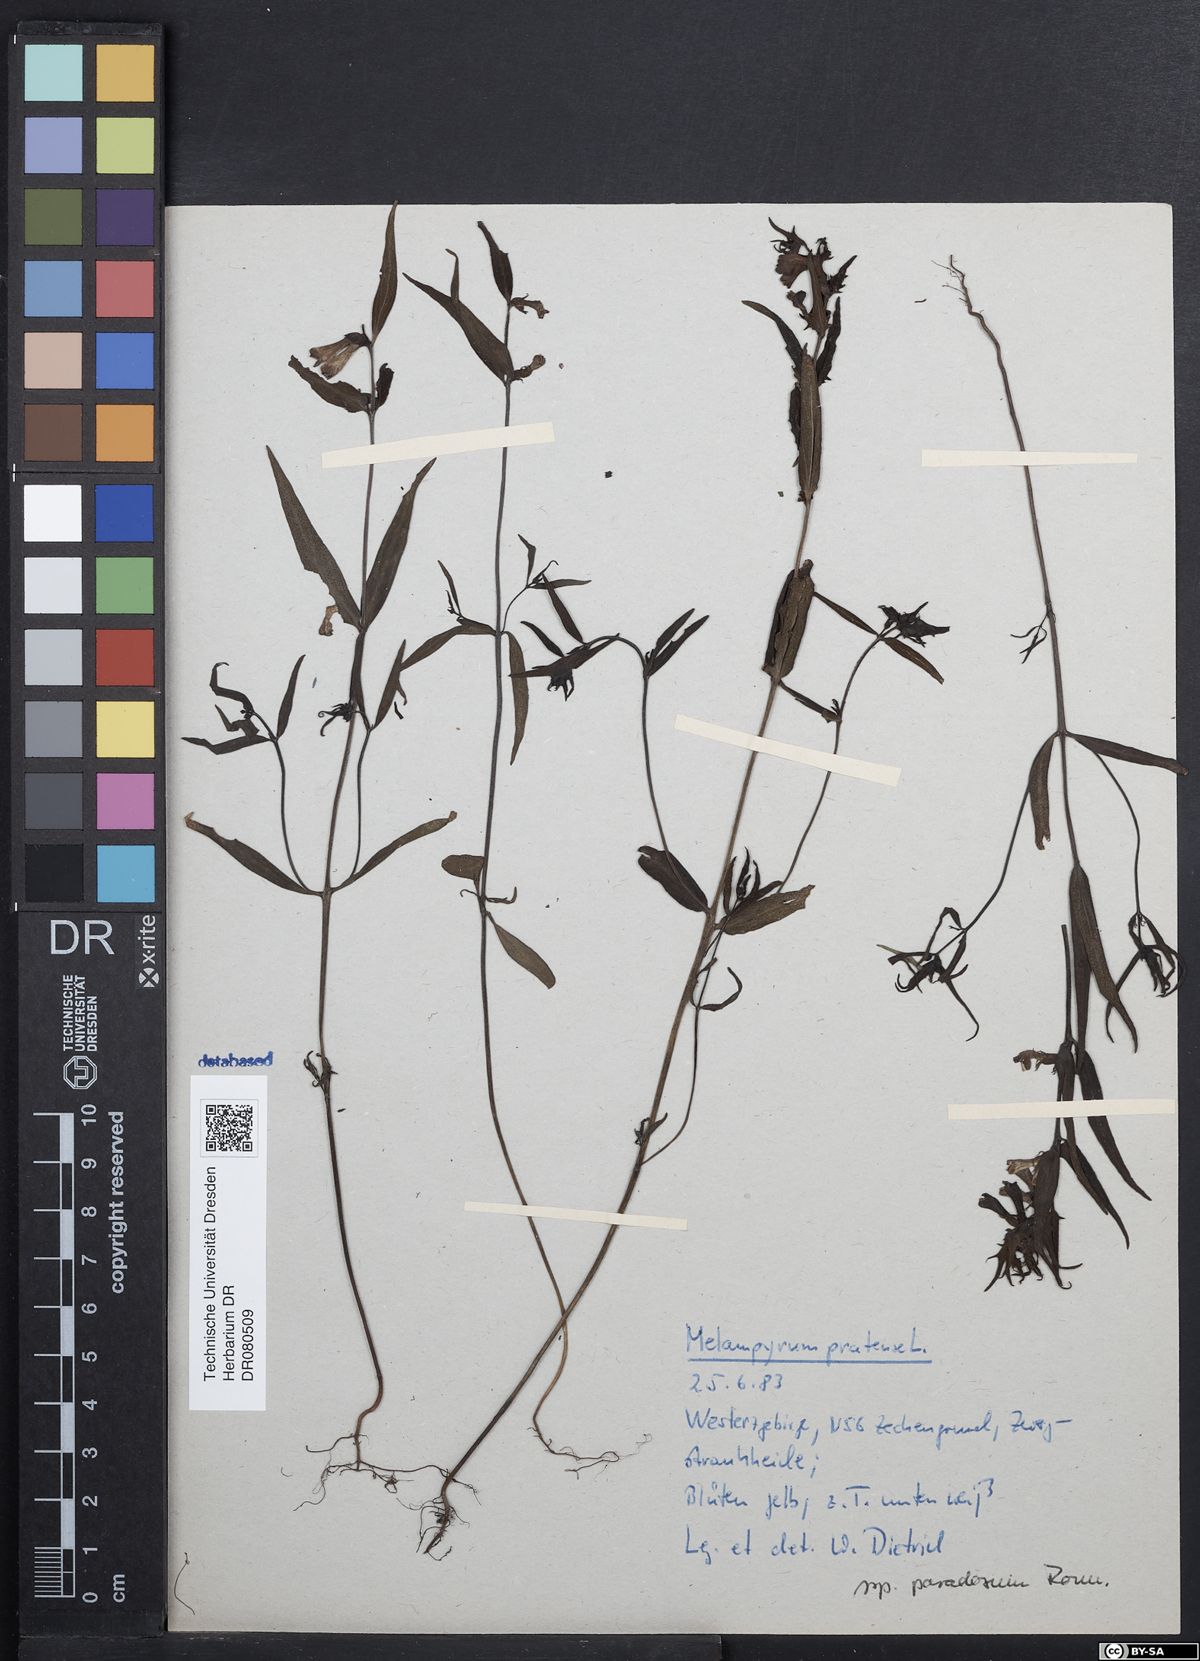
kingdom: Plantae
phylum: Tracheophyta
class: Magnoliopsida
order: Lamiales
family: Orobanchaceae
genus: Melampyrum
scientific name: Melampyrum pratense
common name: Common cow-wheat
